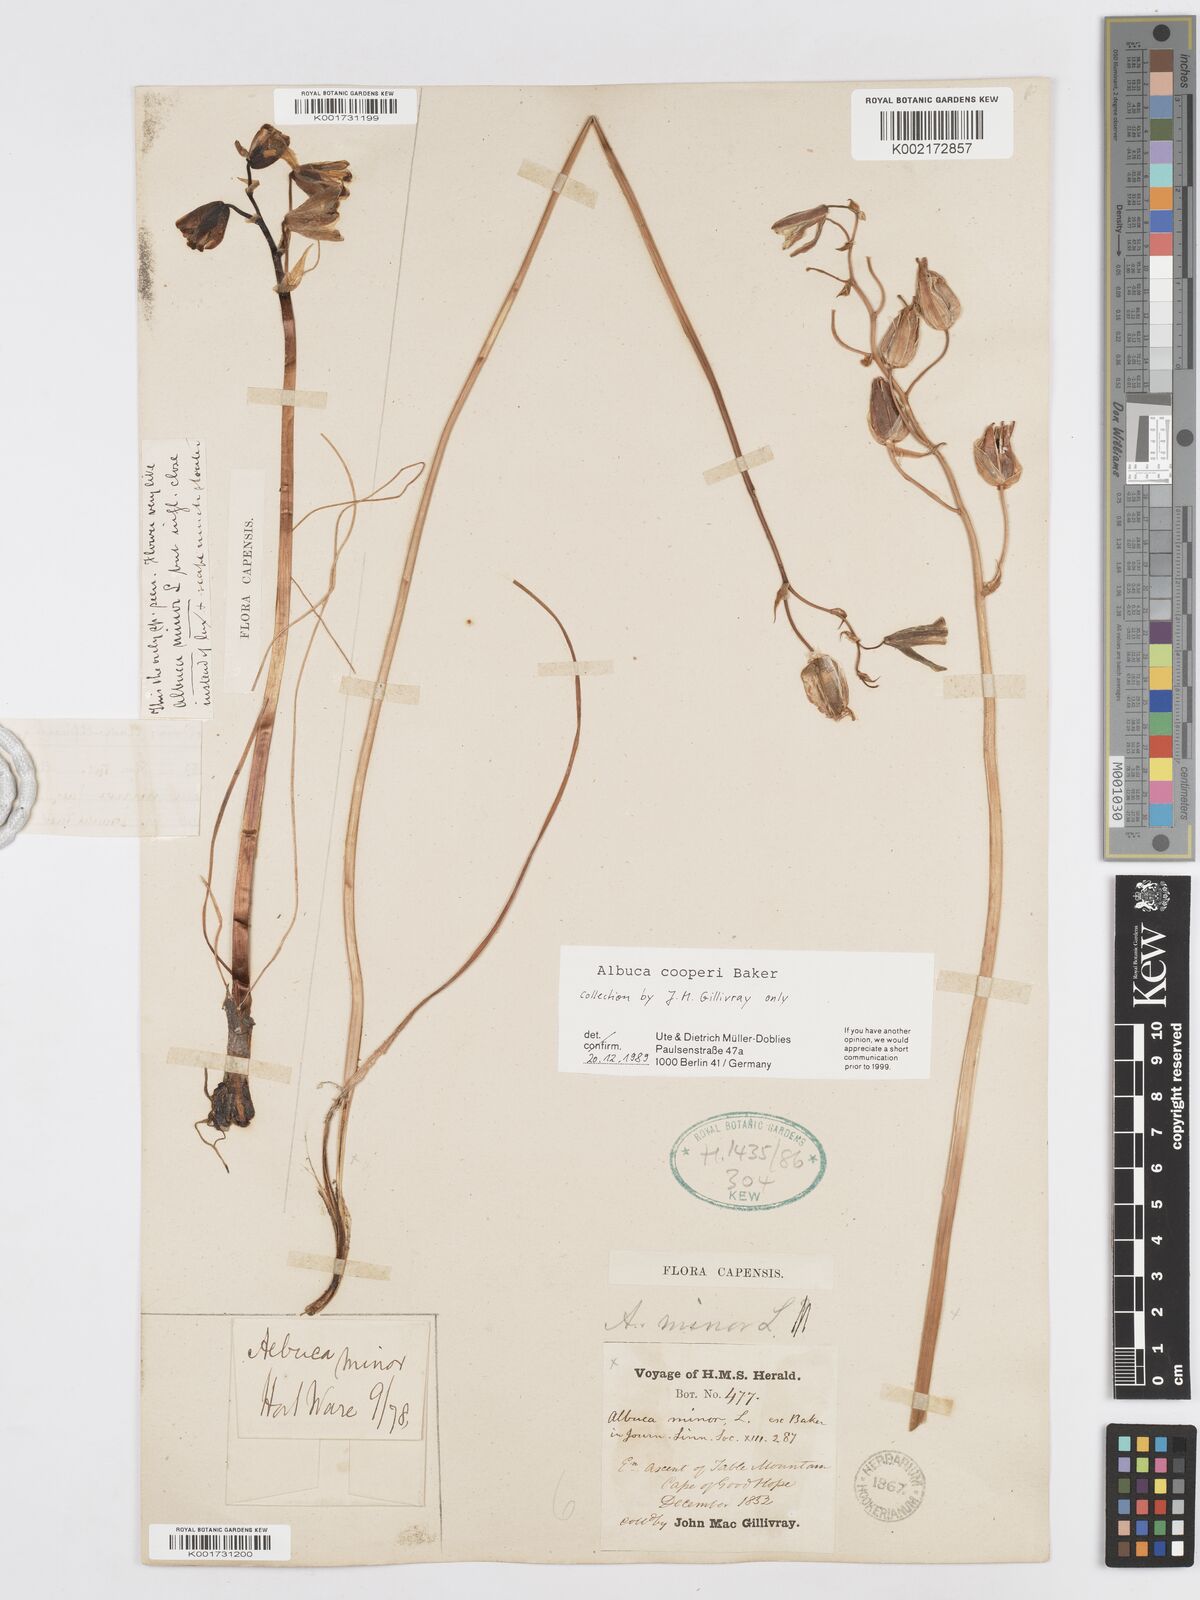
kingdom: Plantae
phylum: Tracheophyta
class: Liliopsida
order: Asparagales
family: Asparagaceae
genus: Albuca
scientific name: Albuca cooperi
